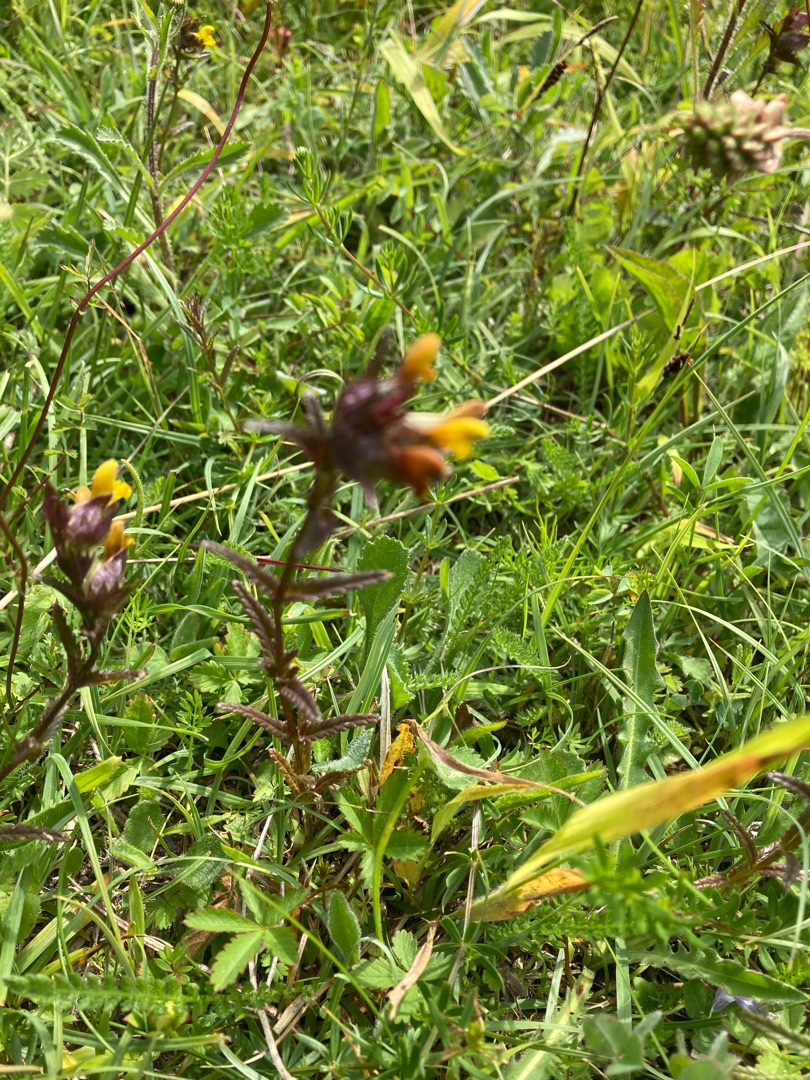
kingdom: Plantae
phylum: Tracheophyta
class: Magnoliopsida
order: Lamiales
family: Orobanchaceae
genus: Rhinanthus
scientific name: Rhinanthus minor
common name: Liden skjaller
